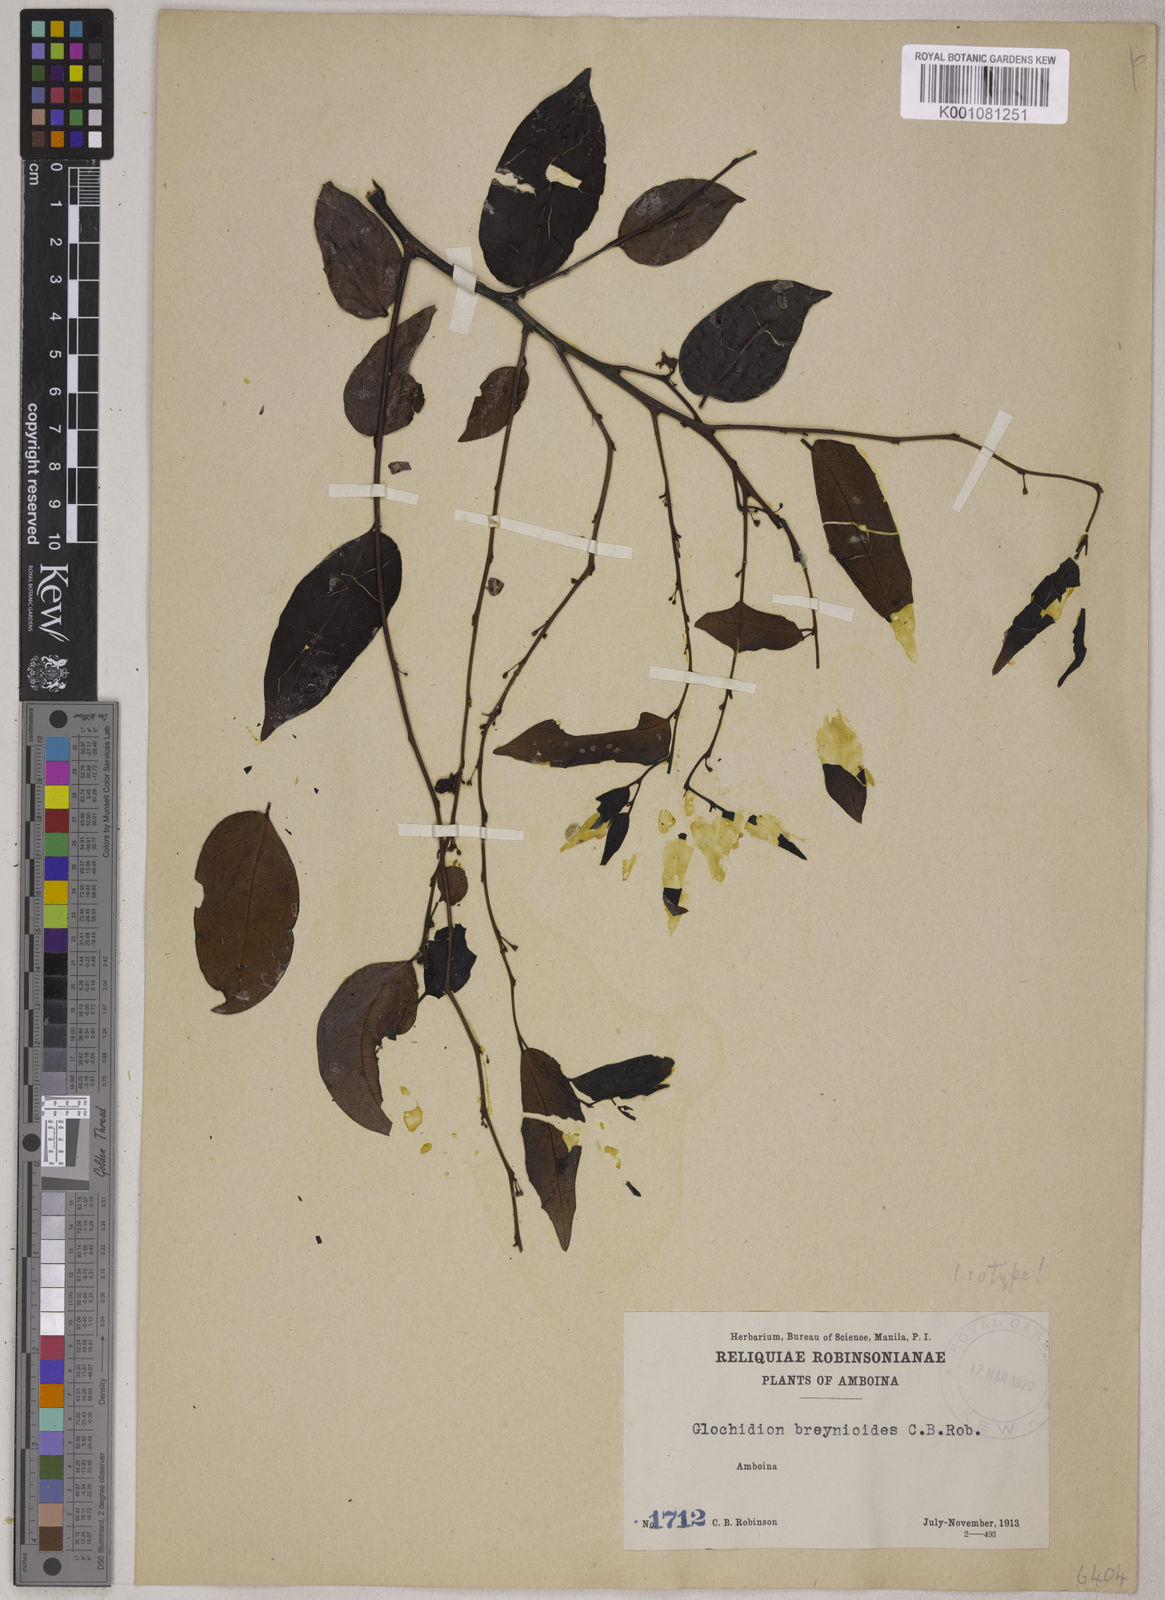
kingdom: Plantae
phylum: Tracheophyta
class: Magnoliopsida
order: Malpighiales
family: Phyllanthaceae
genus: Glochidion
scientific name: Glochidion lutescens
